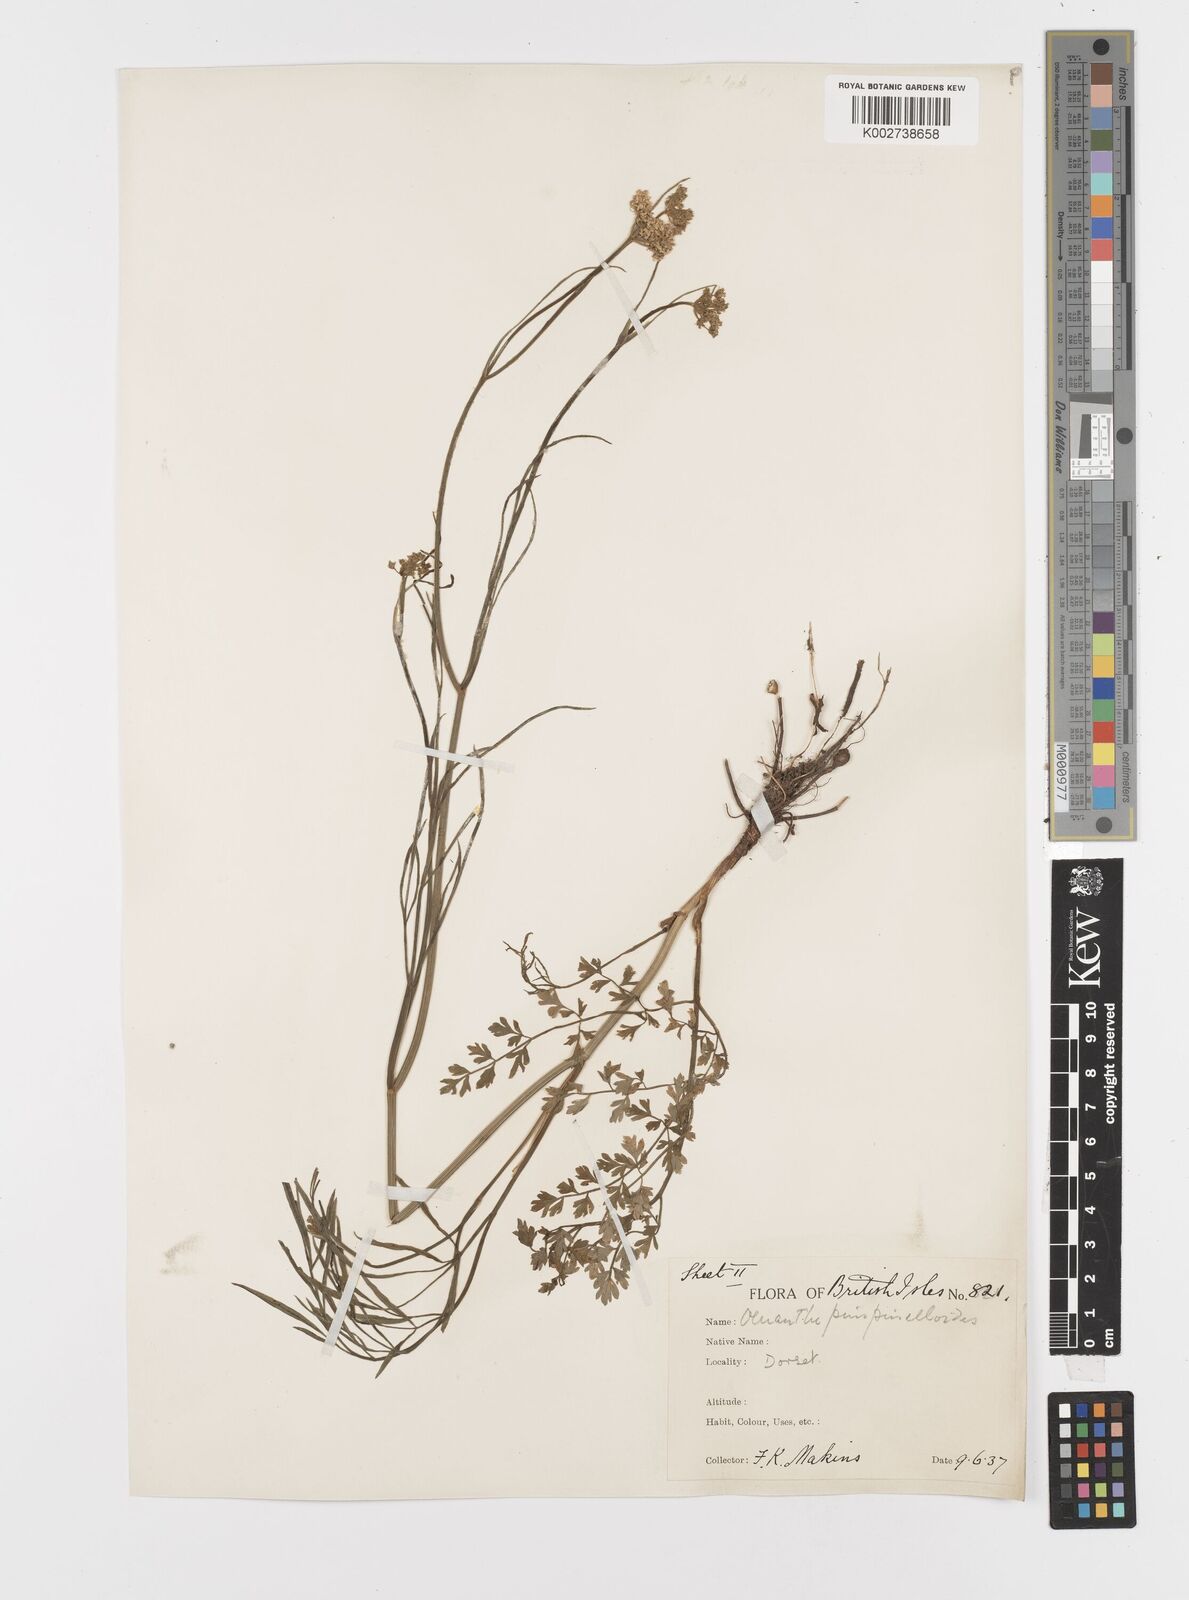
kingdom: Plantae
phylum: Tracheophyta
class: Magnoliopsida
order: Apiales
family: Apiaceae
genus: Oenanthe
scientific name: Oenanthe pimpinelloides
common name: Corky-fruited water-dropwort
